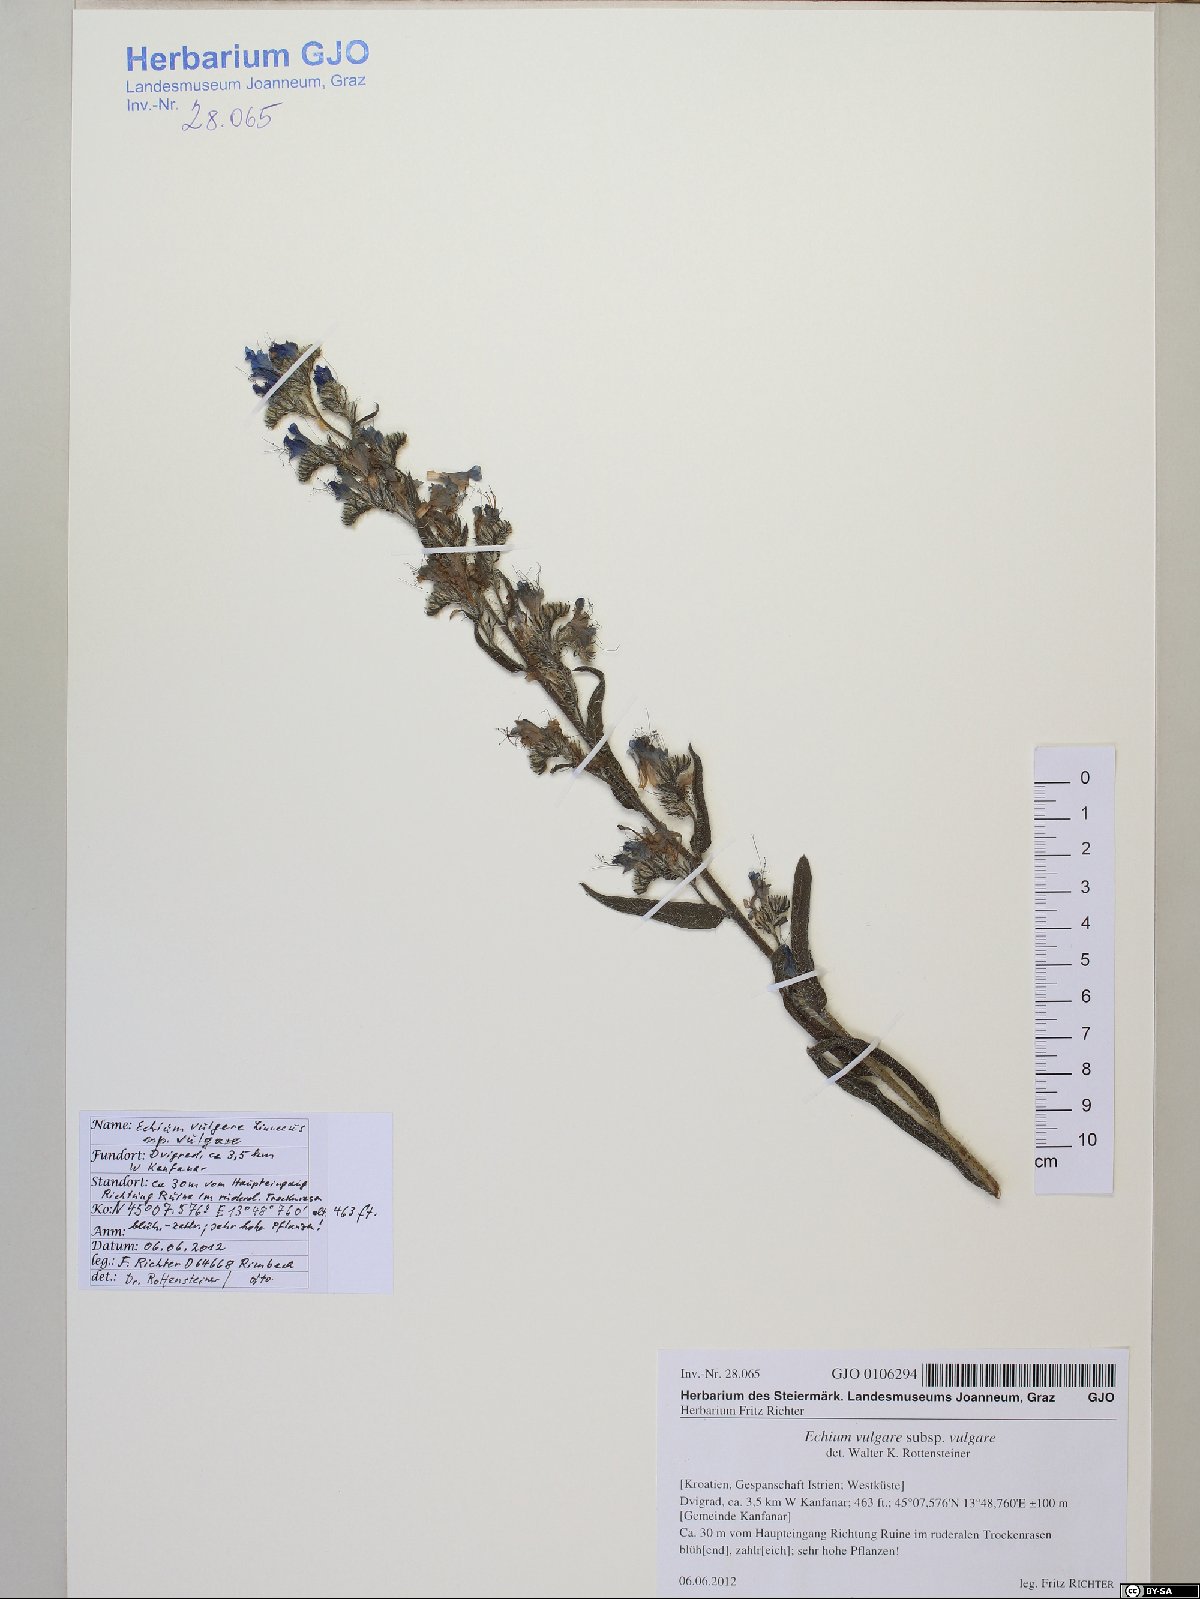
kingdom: Plantae
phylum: Tracheophyta
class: Magnoliopsida
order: Boraginales
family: Boraginaceae
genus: Echium
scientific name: Echium vulgare
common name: Common viper's bugloss
